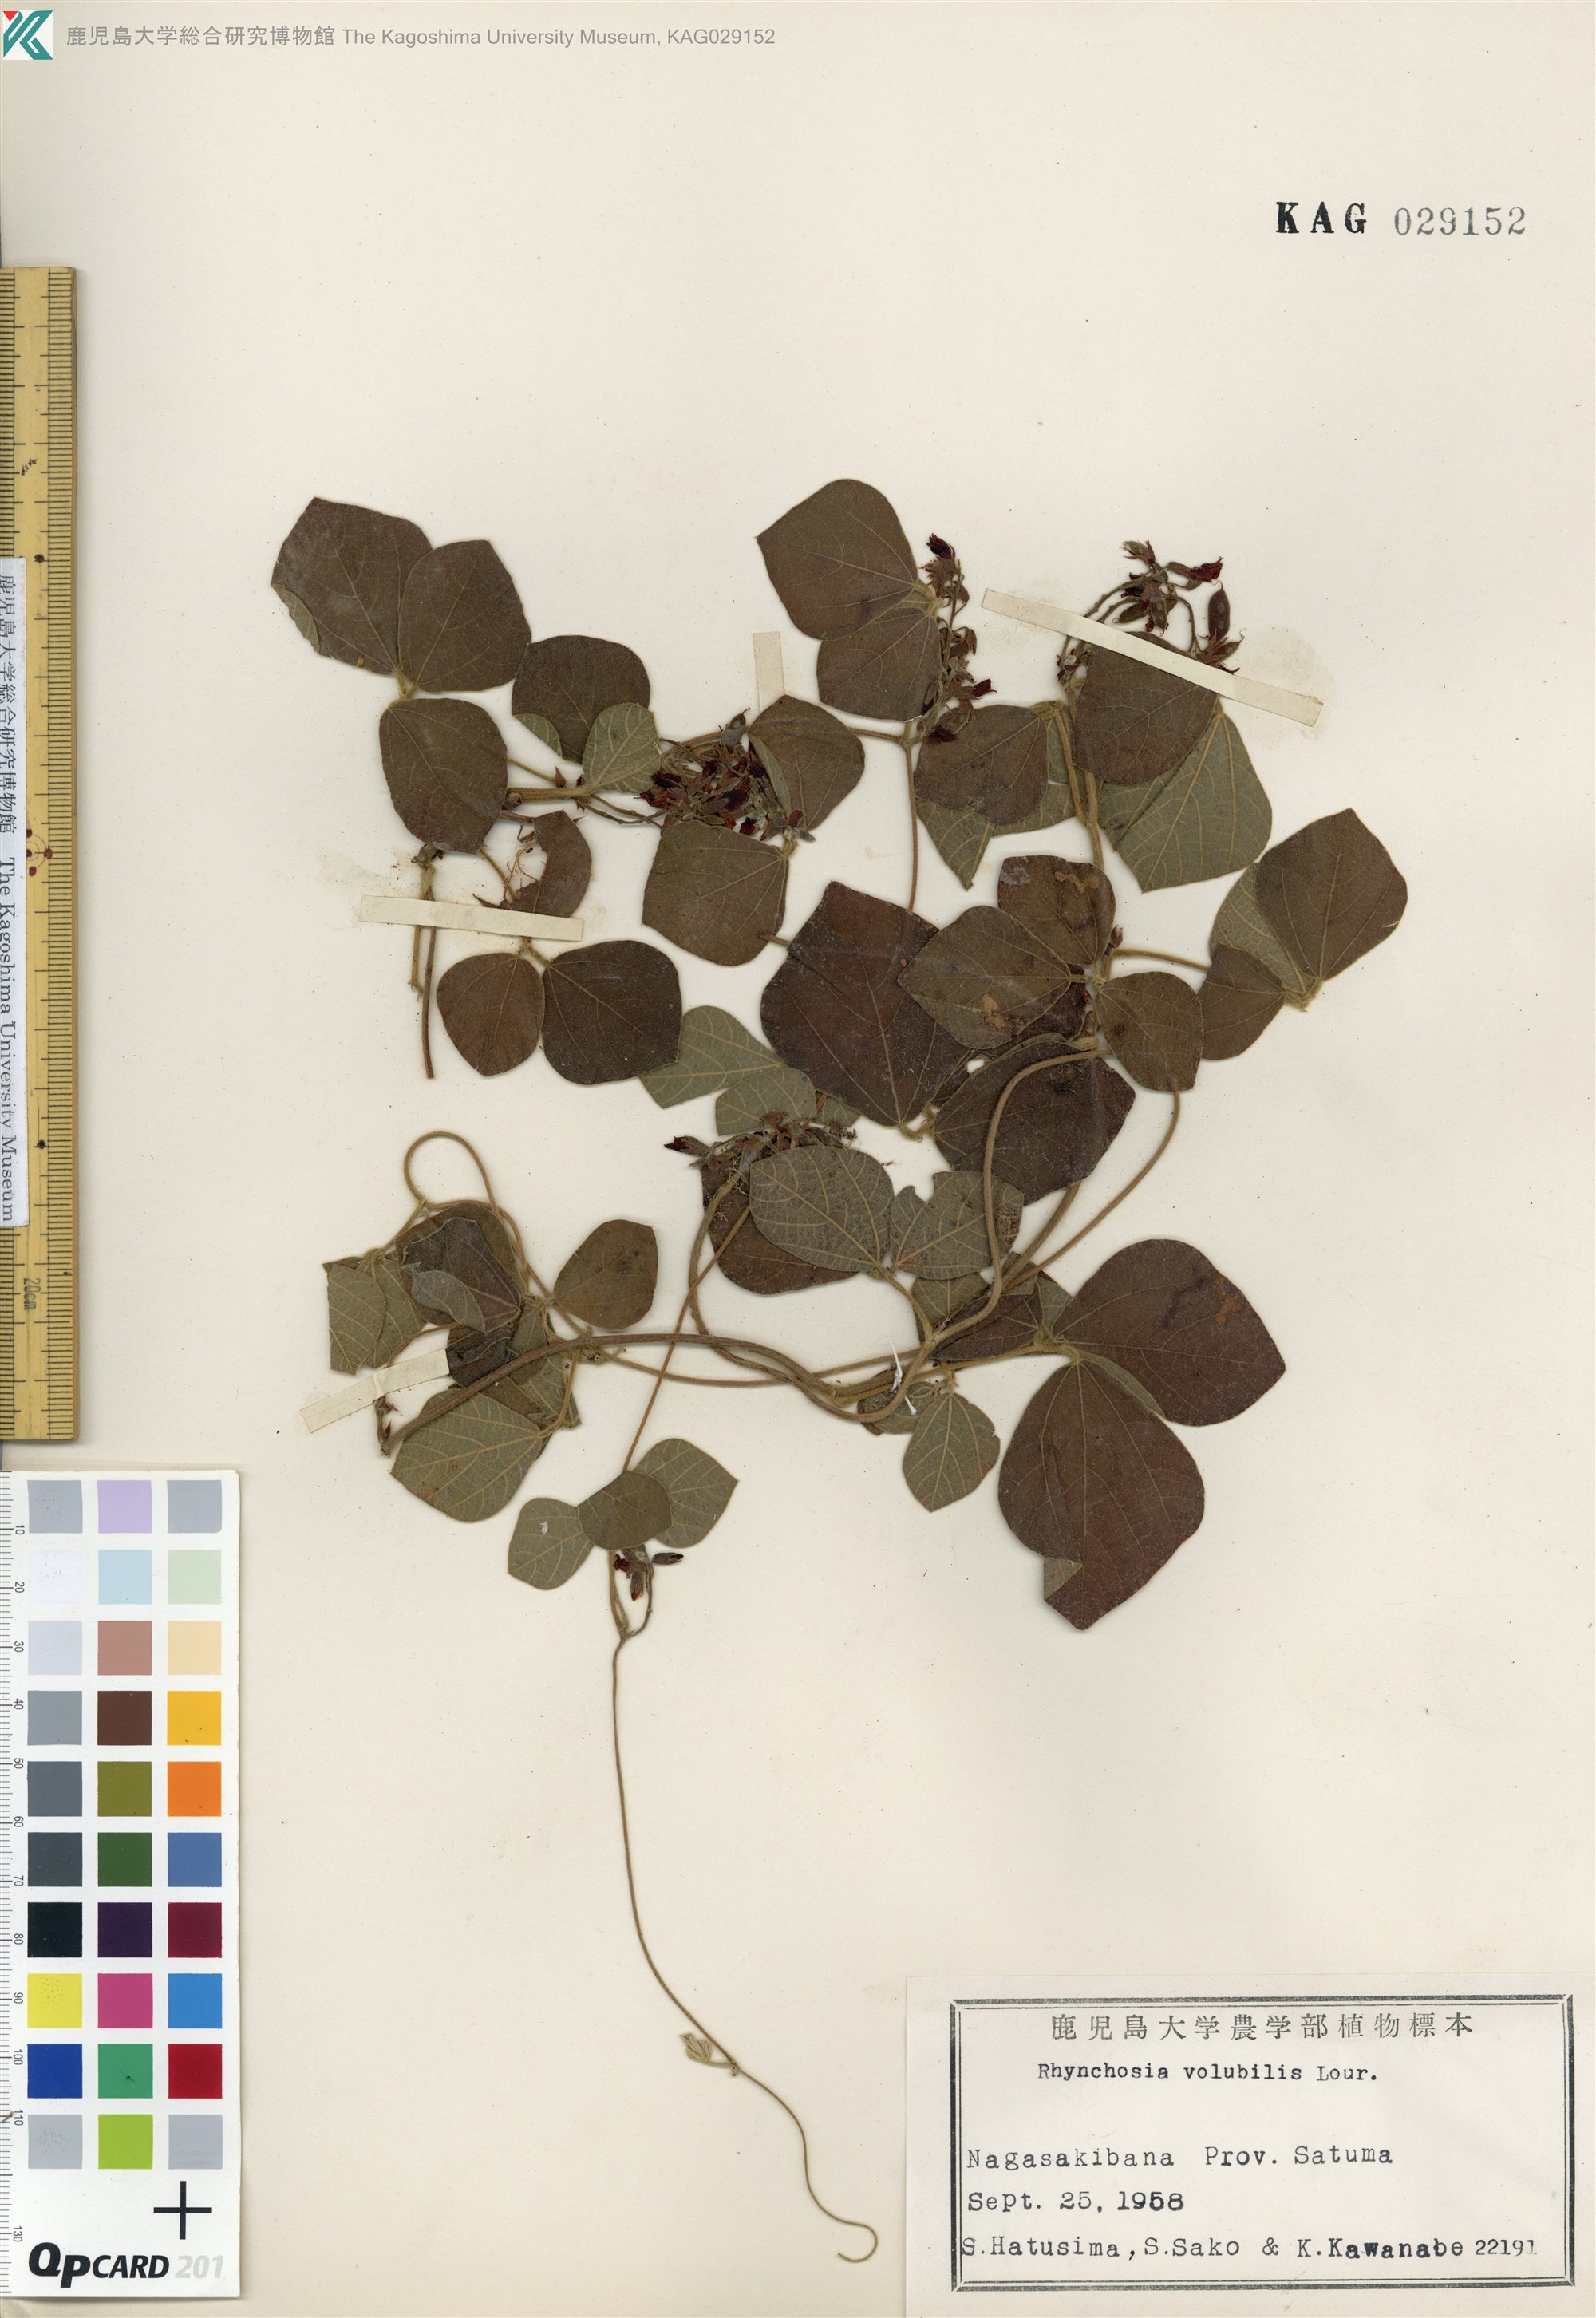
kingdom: Plantae
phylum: Tracheophyta
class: Magnoliopsida
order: Fabales
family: Fabaceae
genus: Rhynchosia
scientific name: Rhynchosia volubilis
